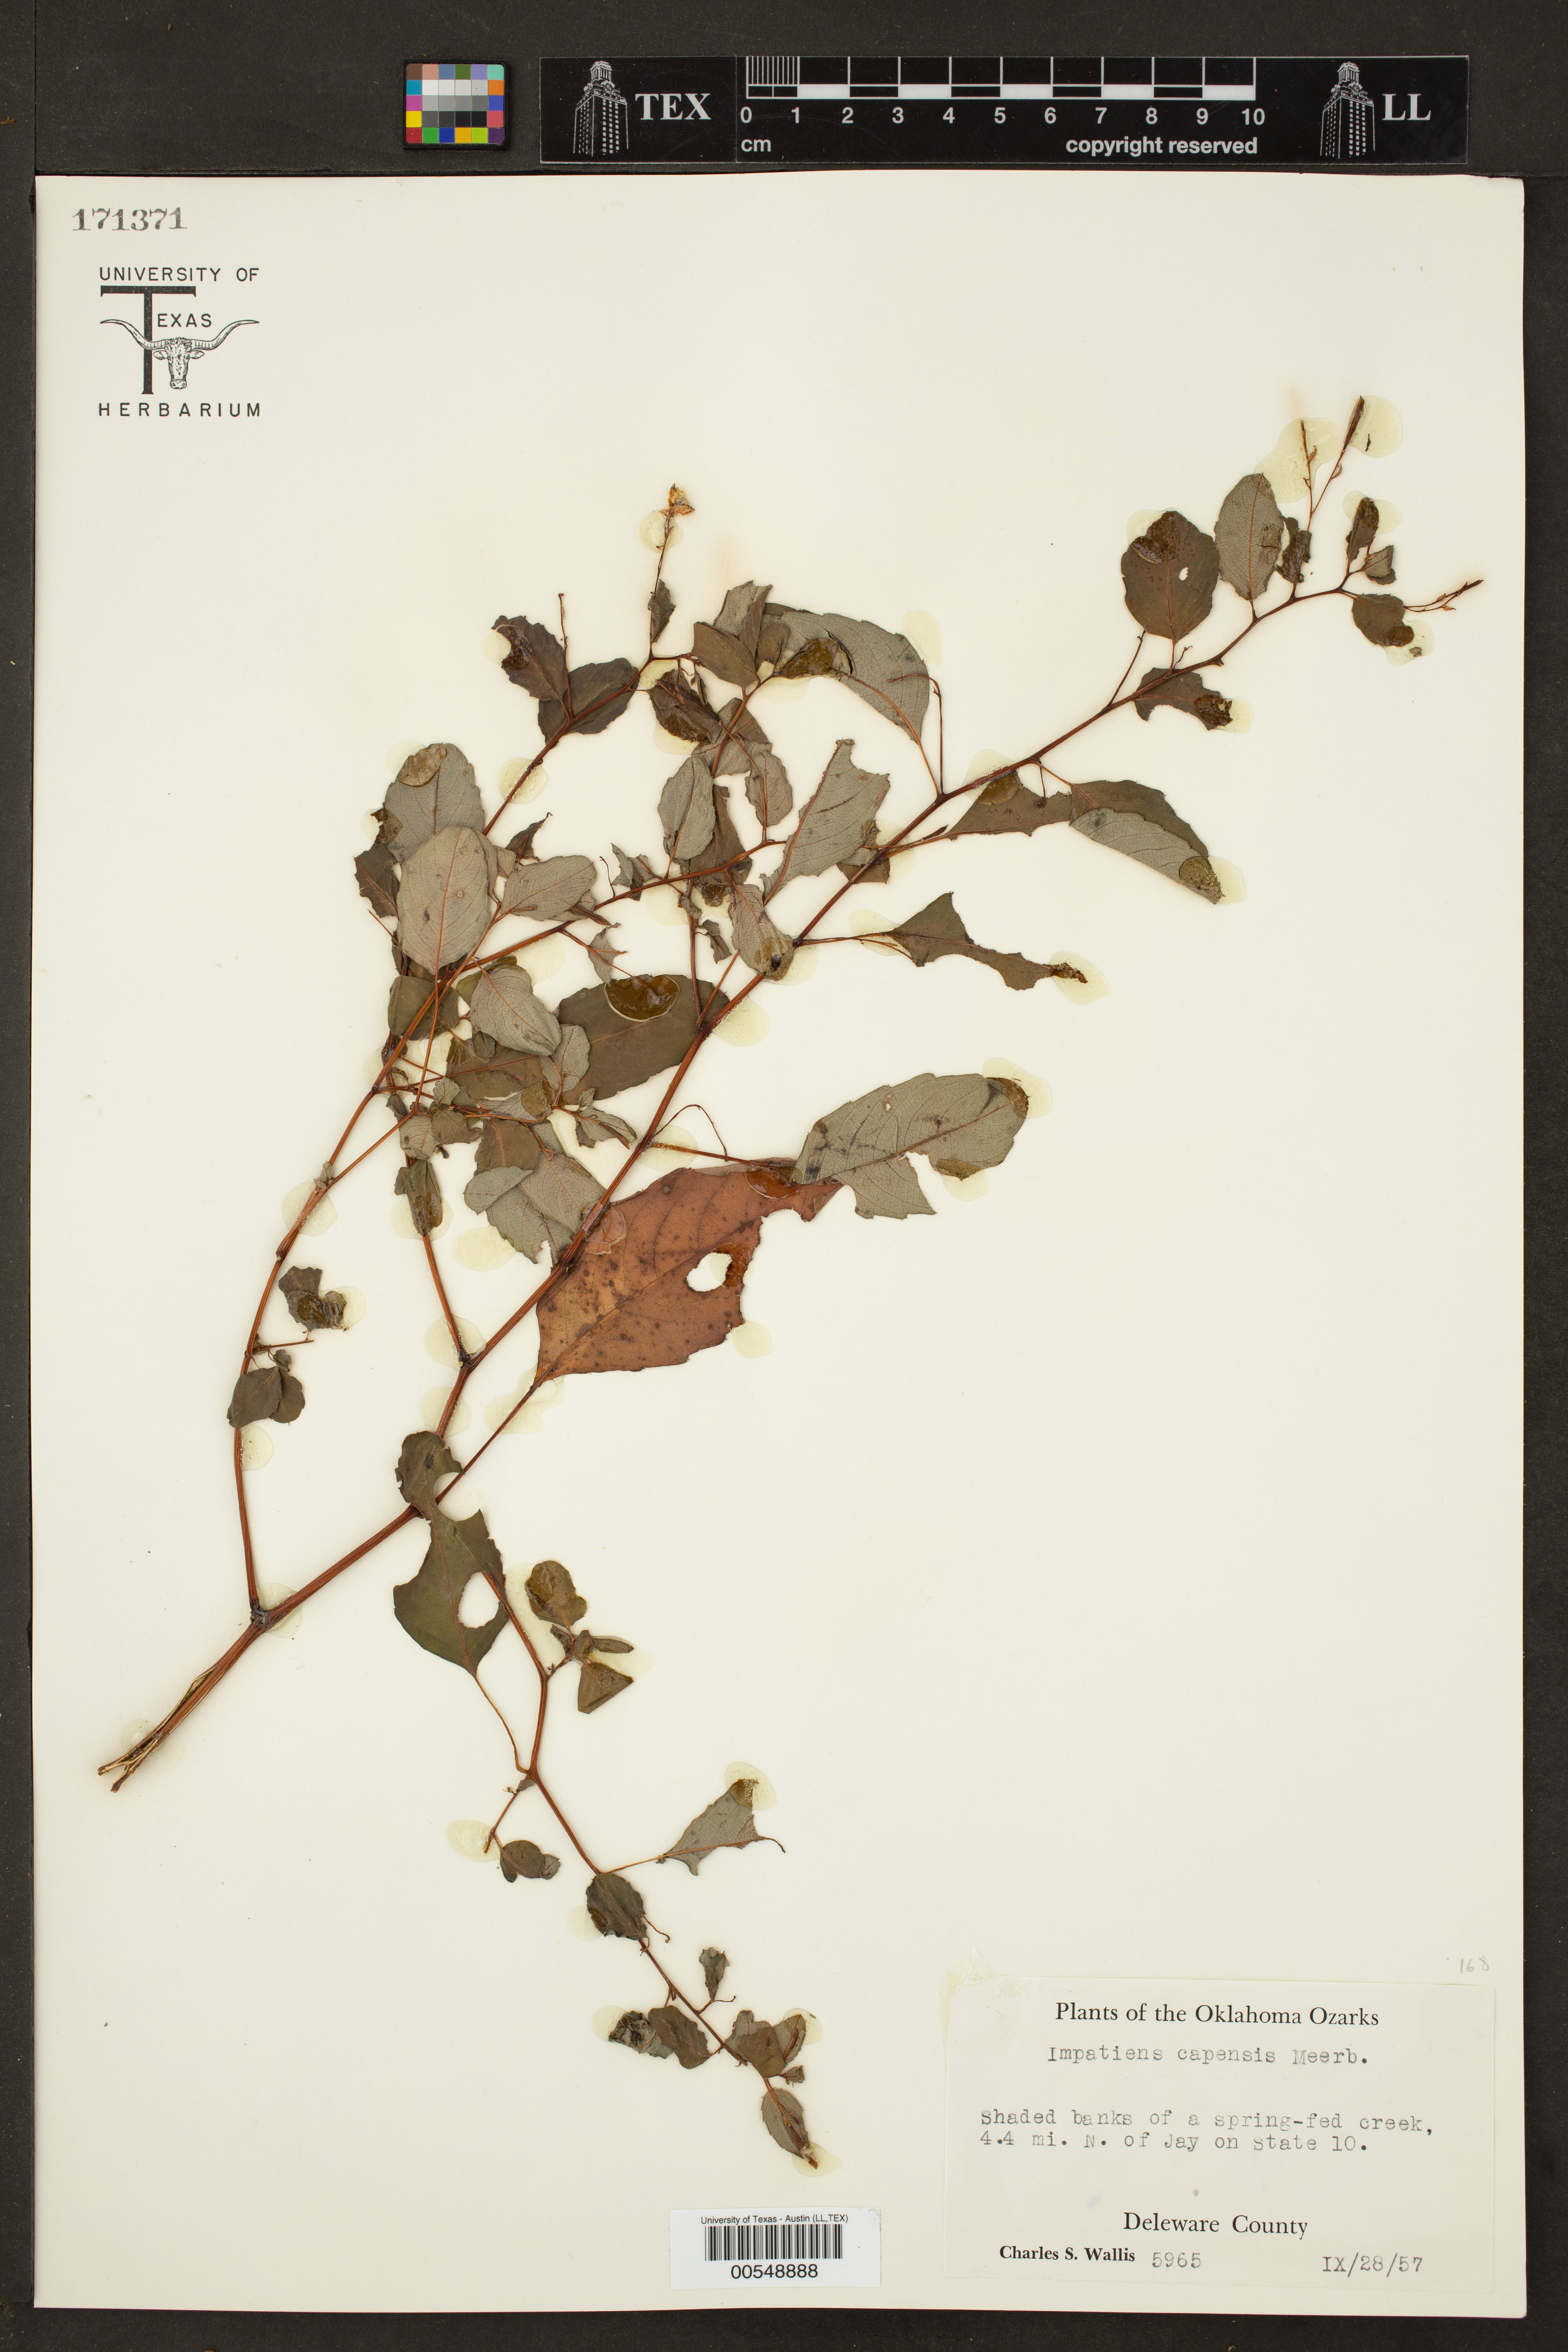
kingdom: Plantae
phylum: Tracheophyta
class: Magnoliopsida
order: Ericales
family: Balsaminaceae
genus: Impatiens
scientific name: Impatiens capensis
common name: Orange balsam
